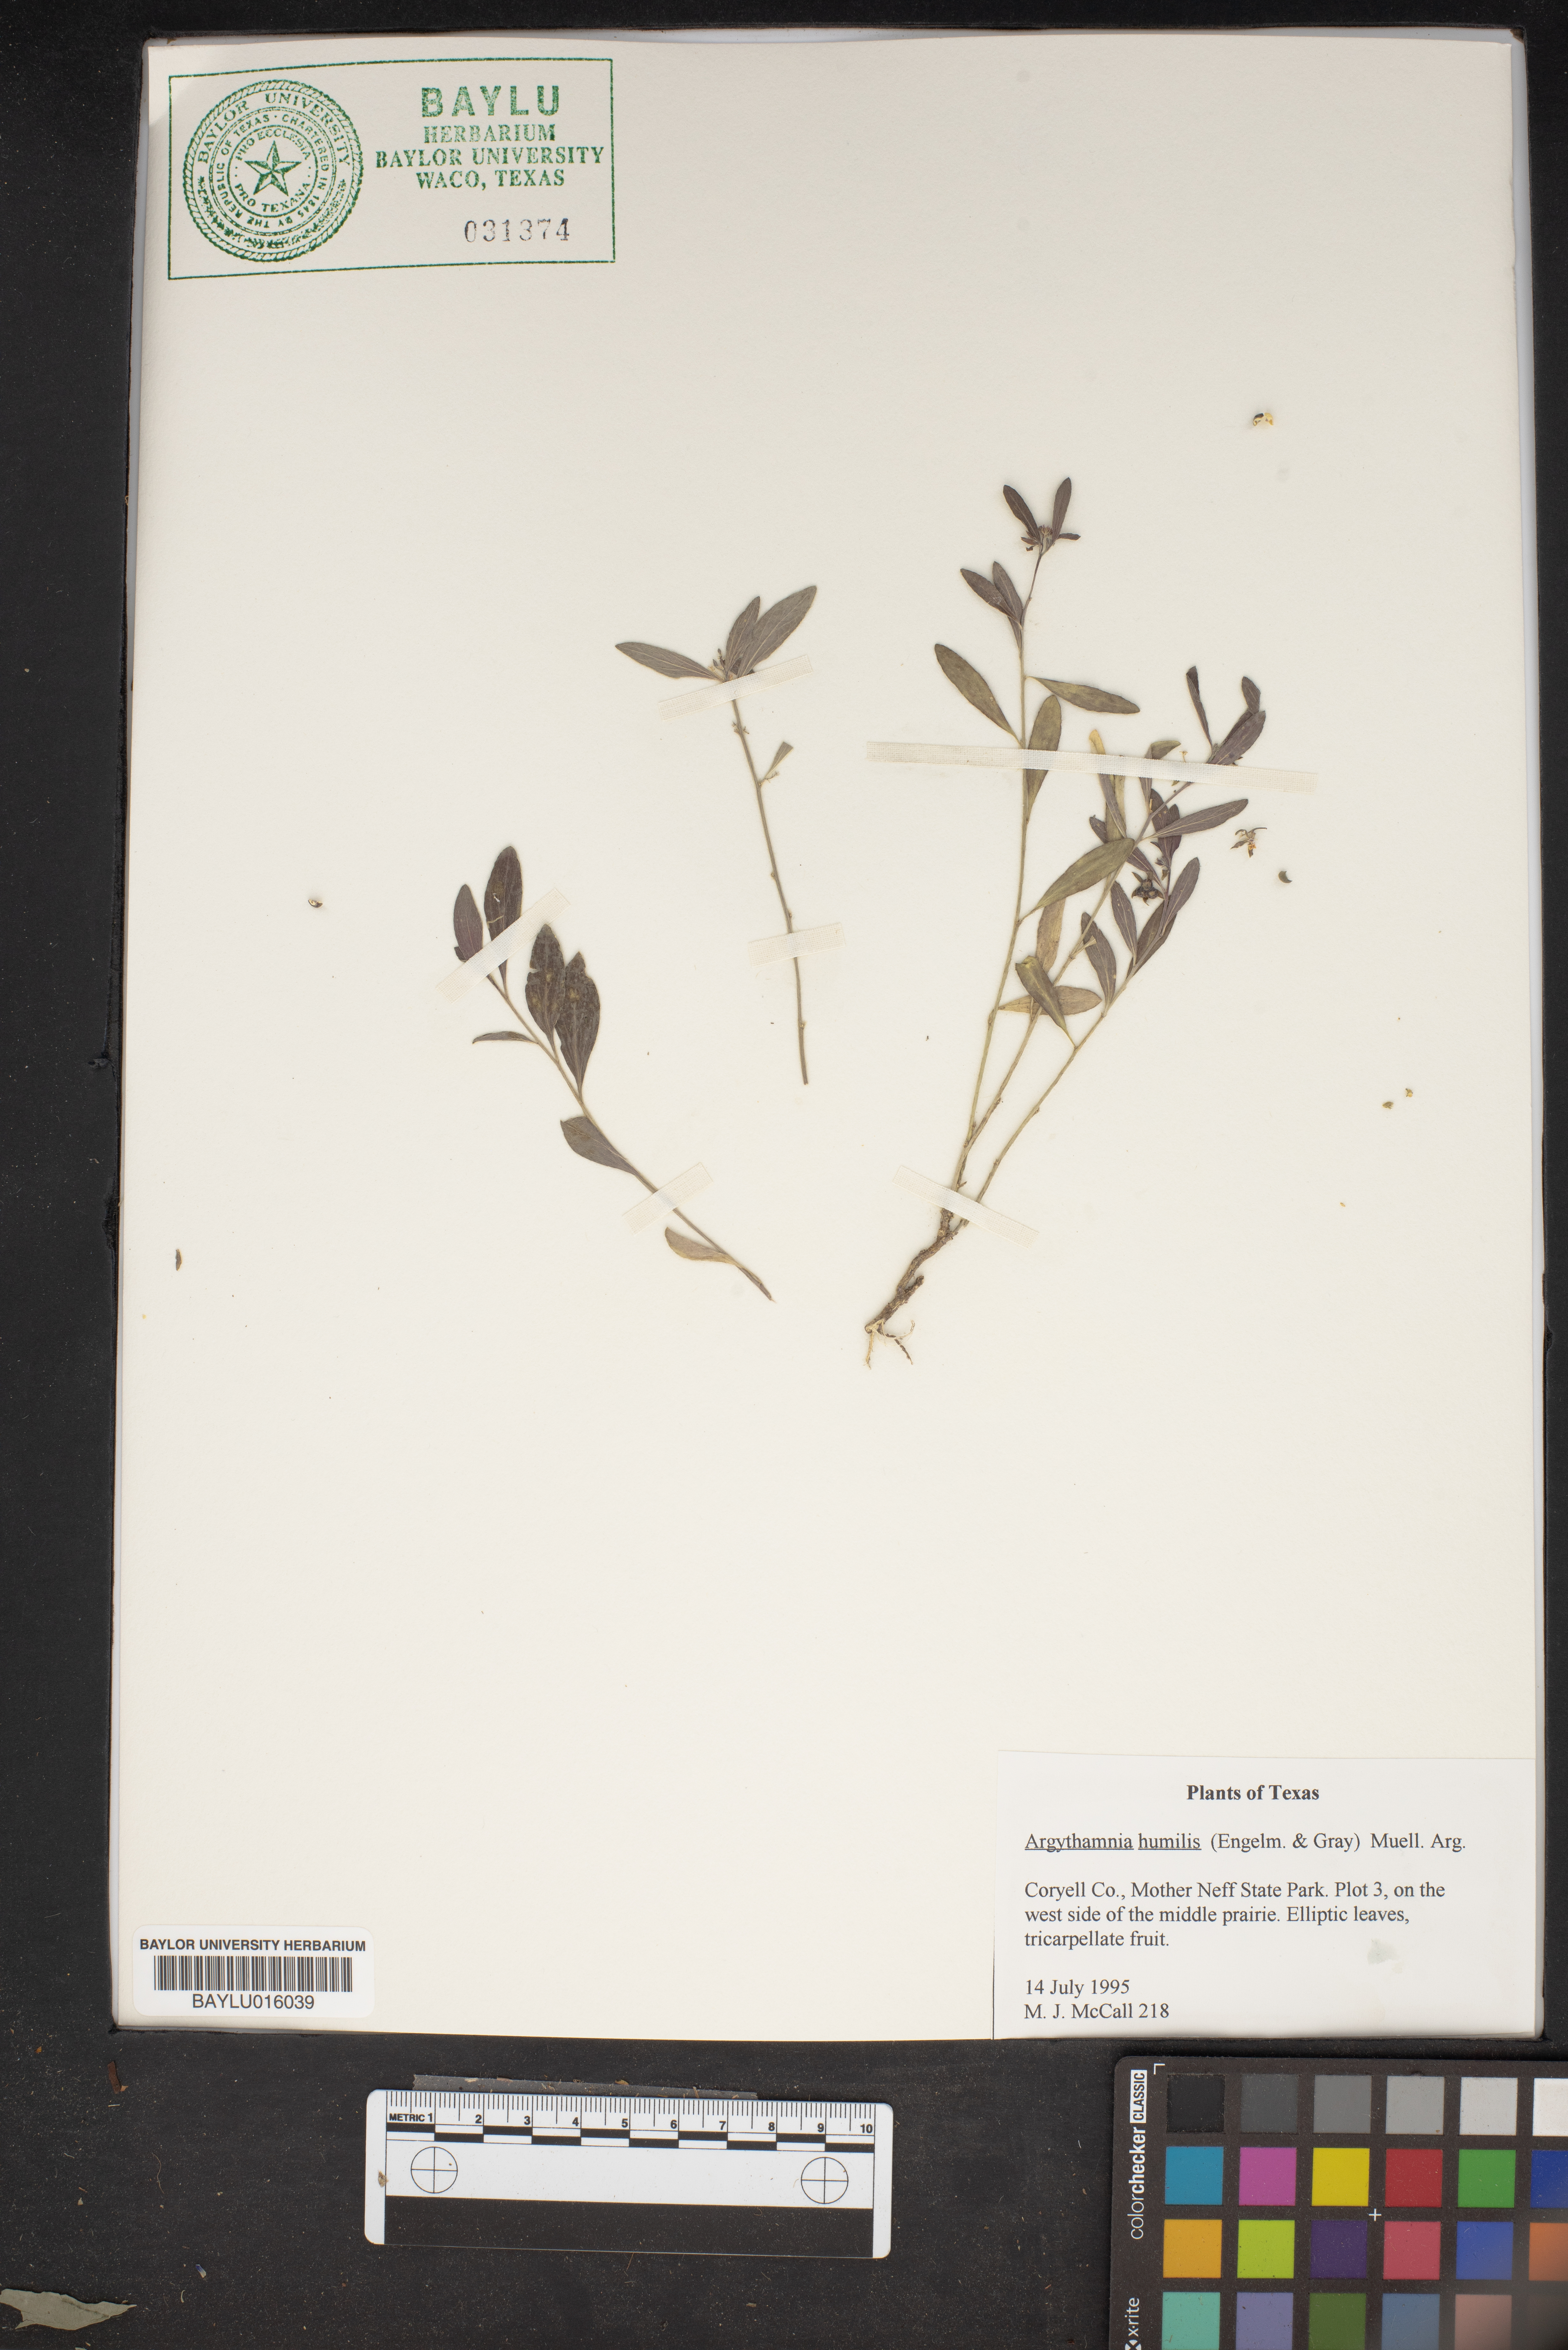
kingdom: Plantae
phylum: Tracheophyta
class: Magnoliopsida
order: Malpighiales
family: Euphorbiaceae
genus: Ditaxis
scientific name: Ditaxis humilis
